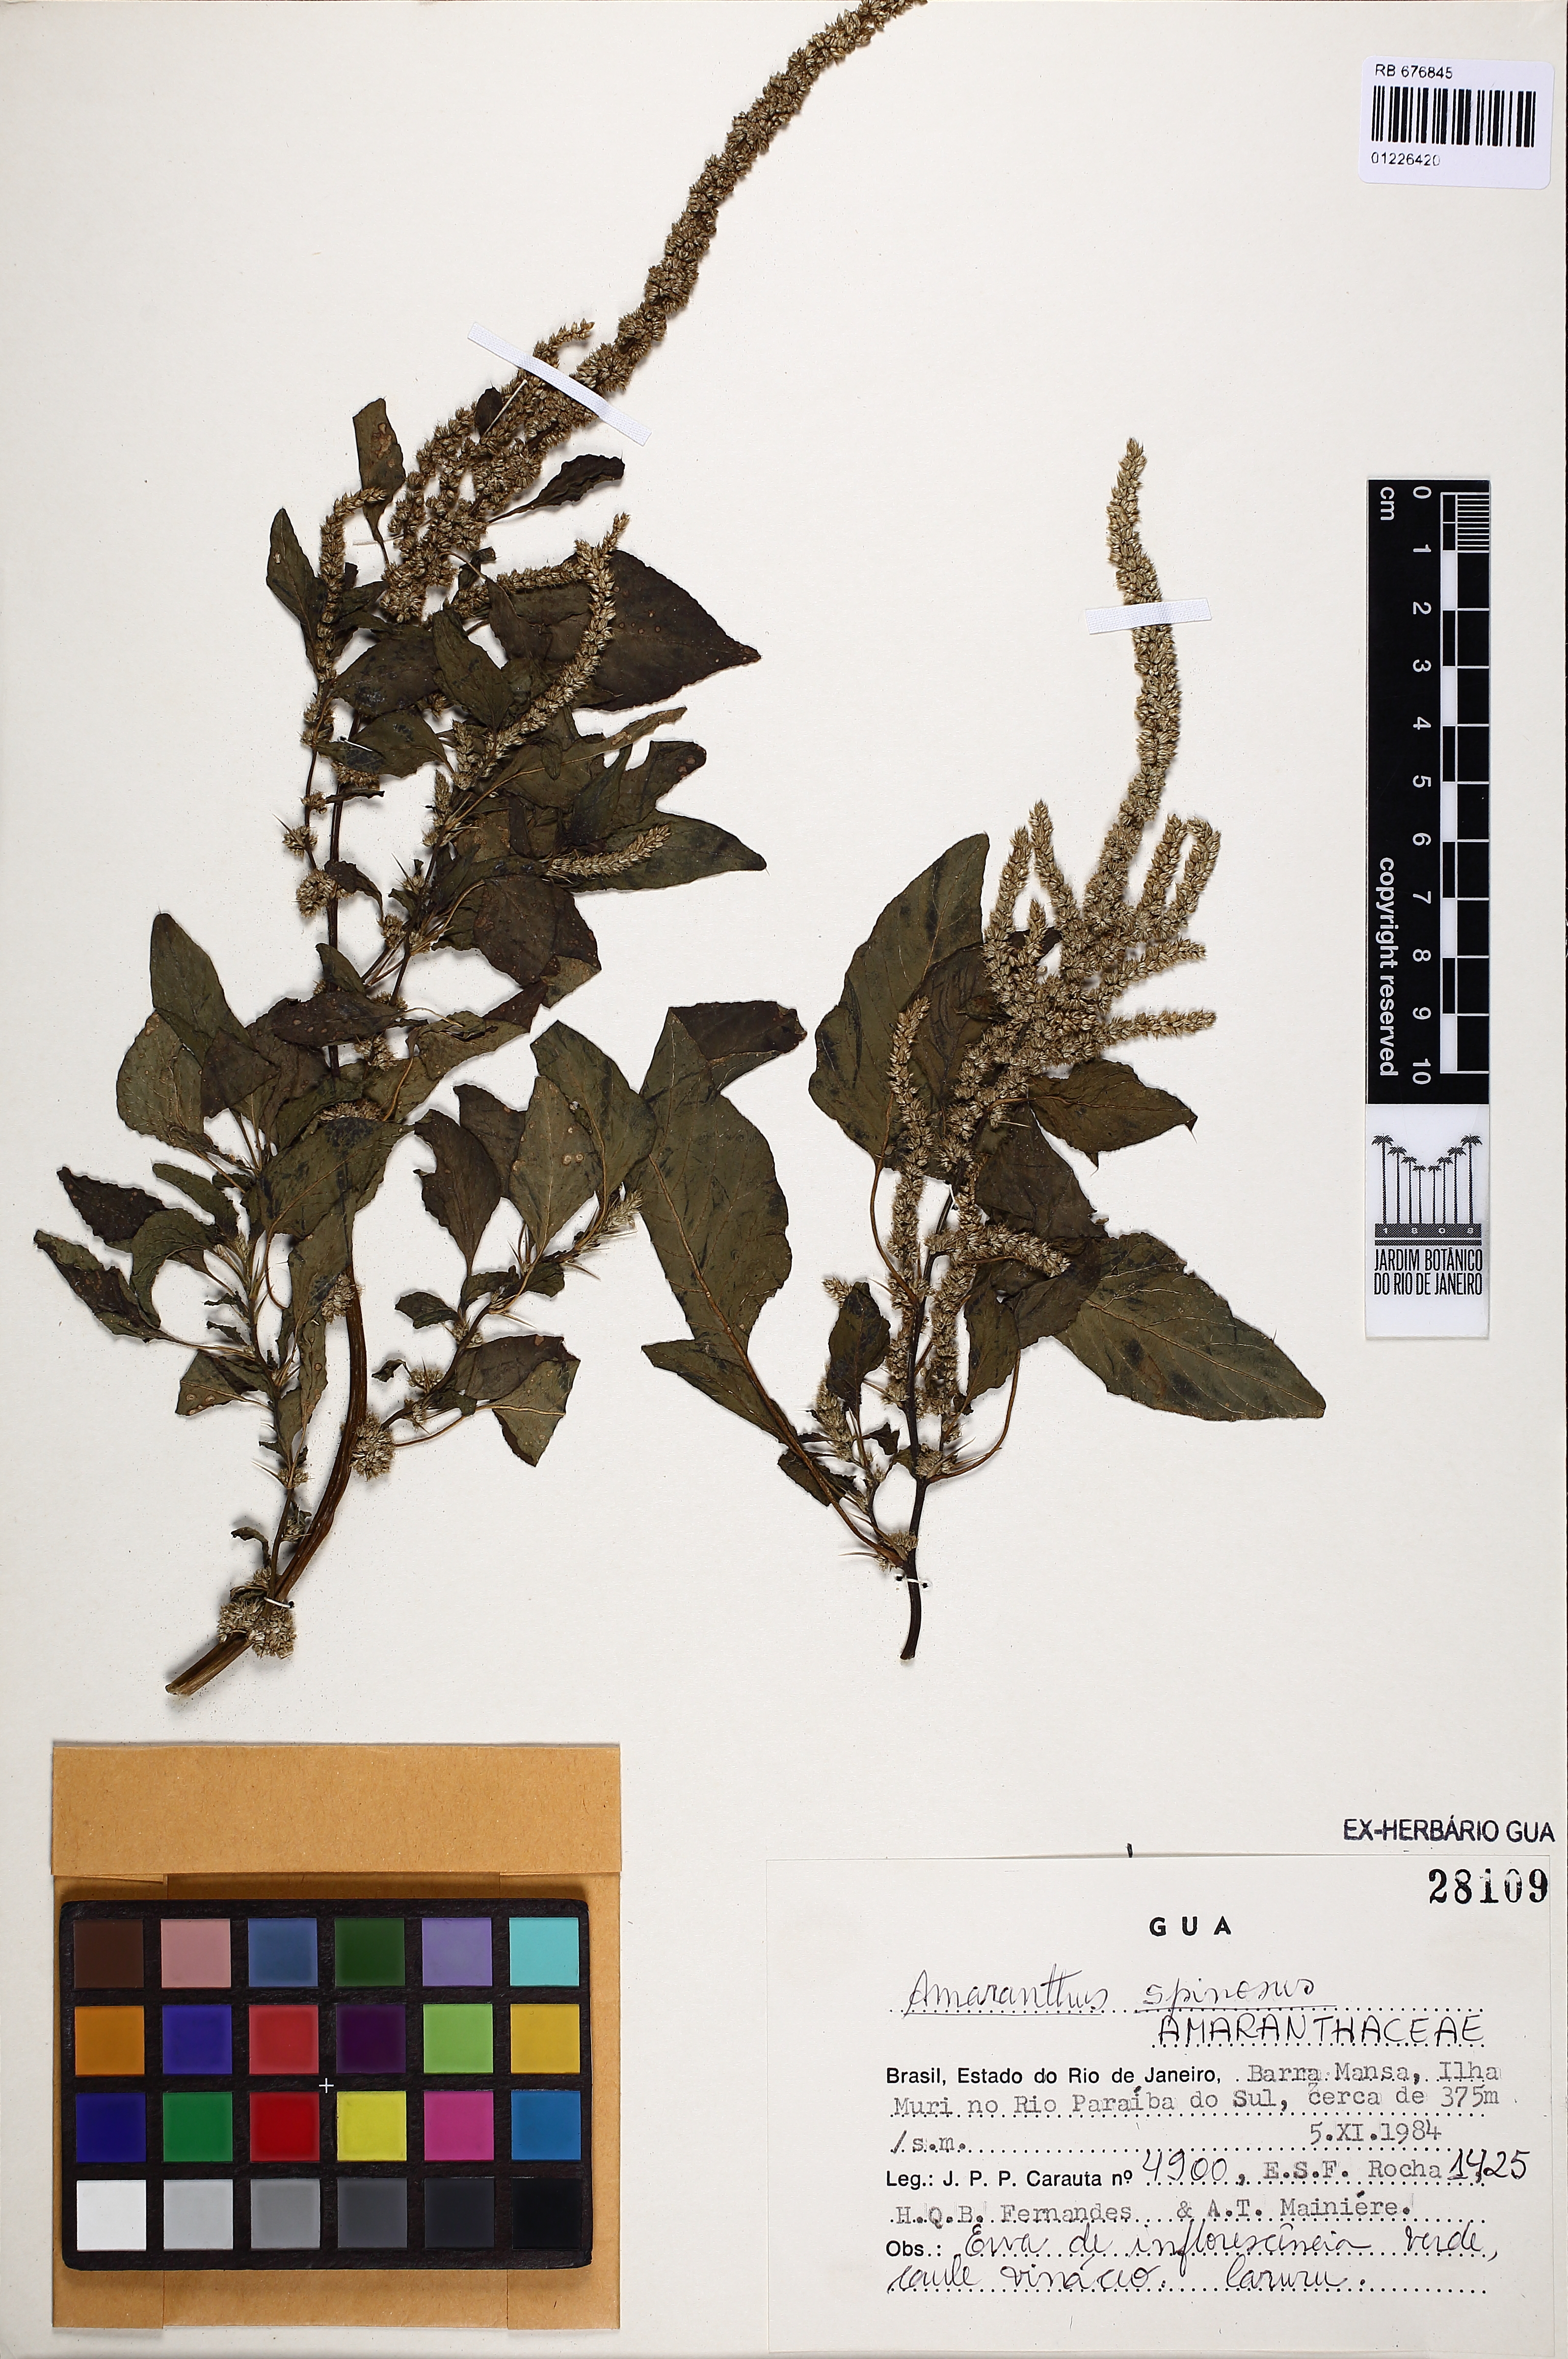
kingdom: Plantae
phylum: Tracheophyta
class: Magnoliopsida
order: Caryophyllales
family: Amaranthaceae
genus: Amaranthus
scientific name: Amaranthus spinosus
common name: Spiny amaranth
